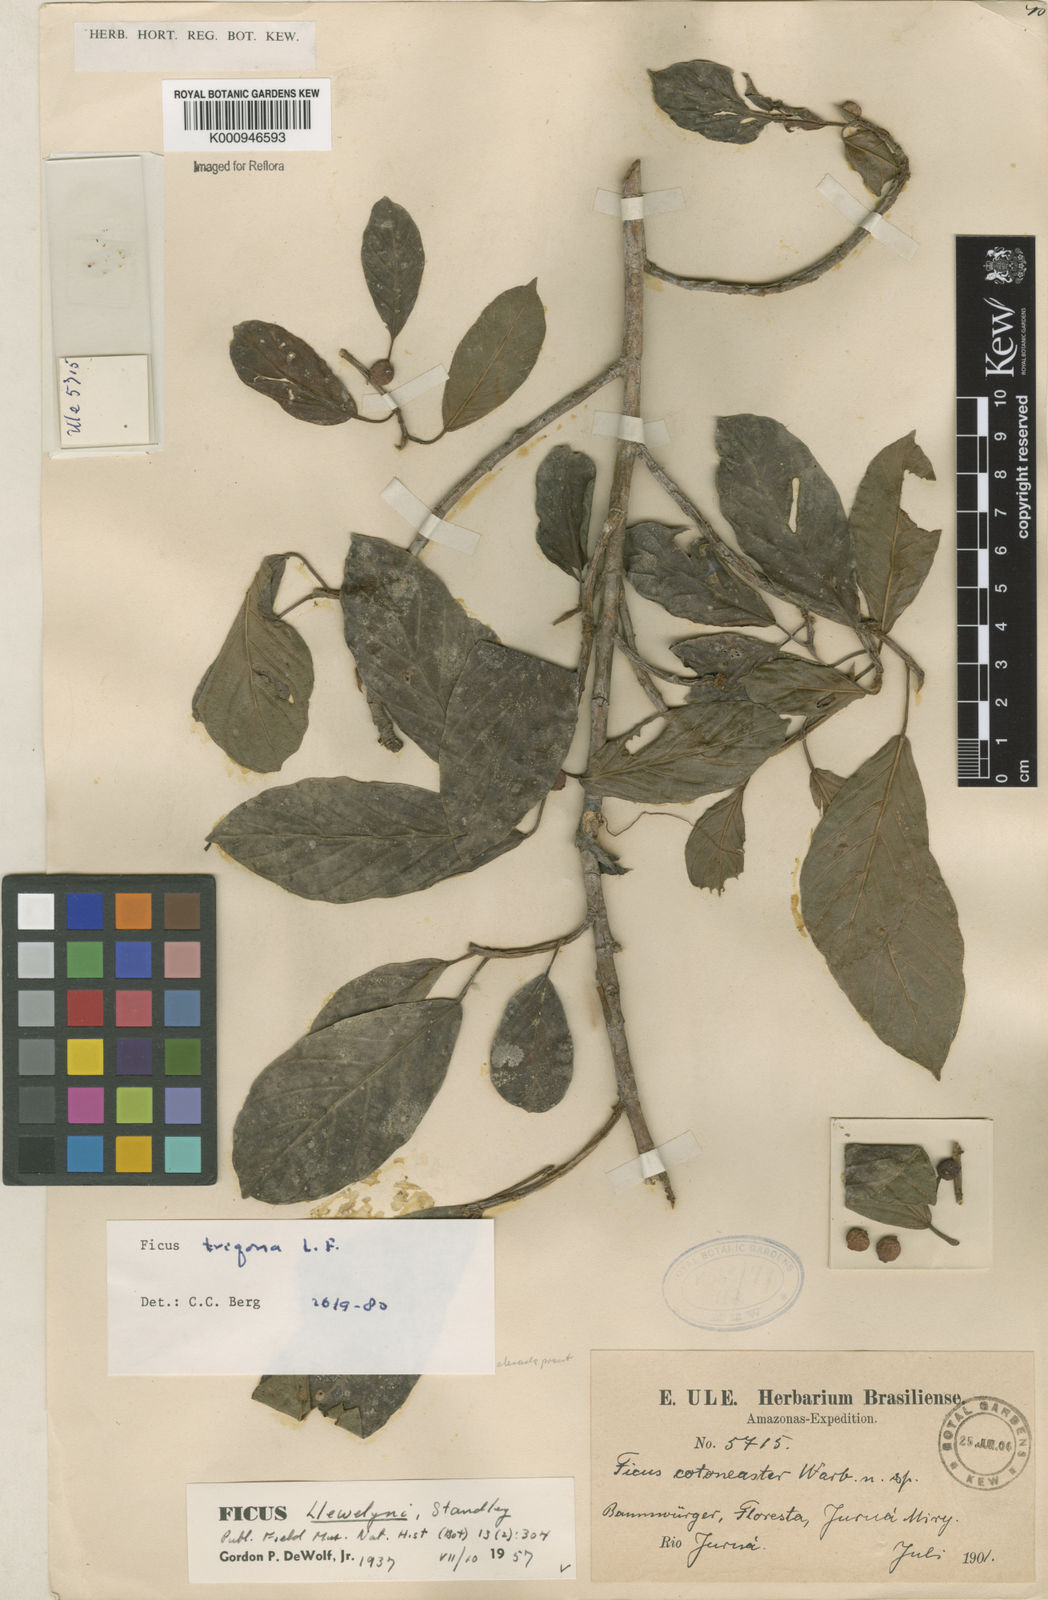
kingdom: Plantae
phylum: Tracheophyta
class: Magnoliopsida
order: Rosales
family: Moraceae
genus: Ficus
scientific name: Ficus trigona
